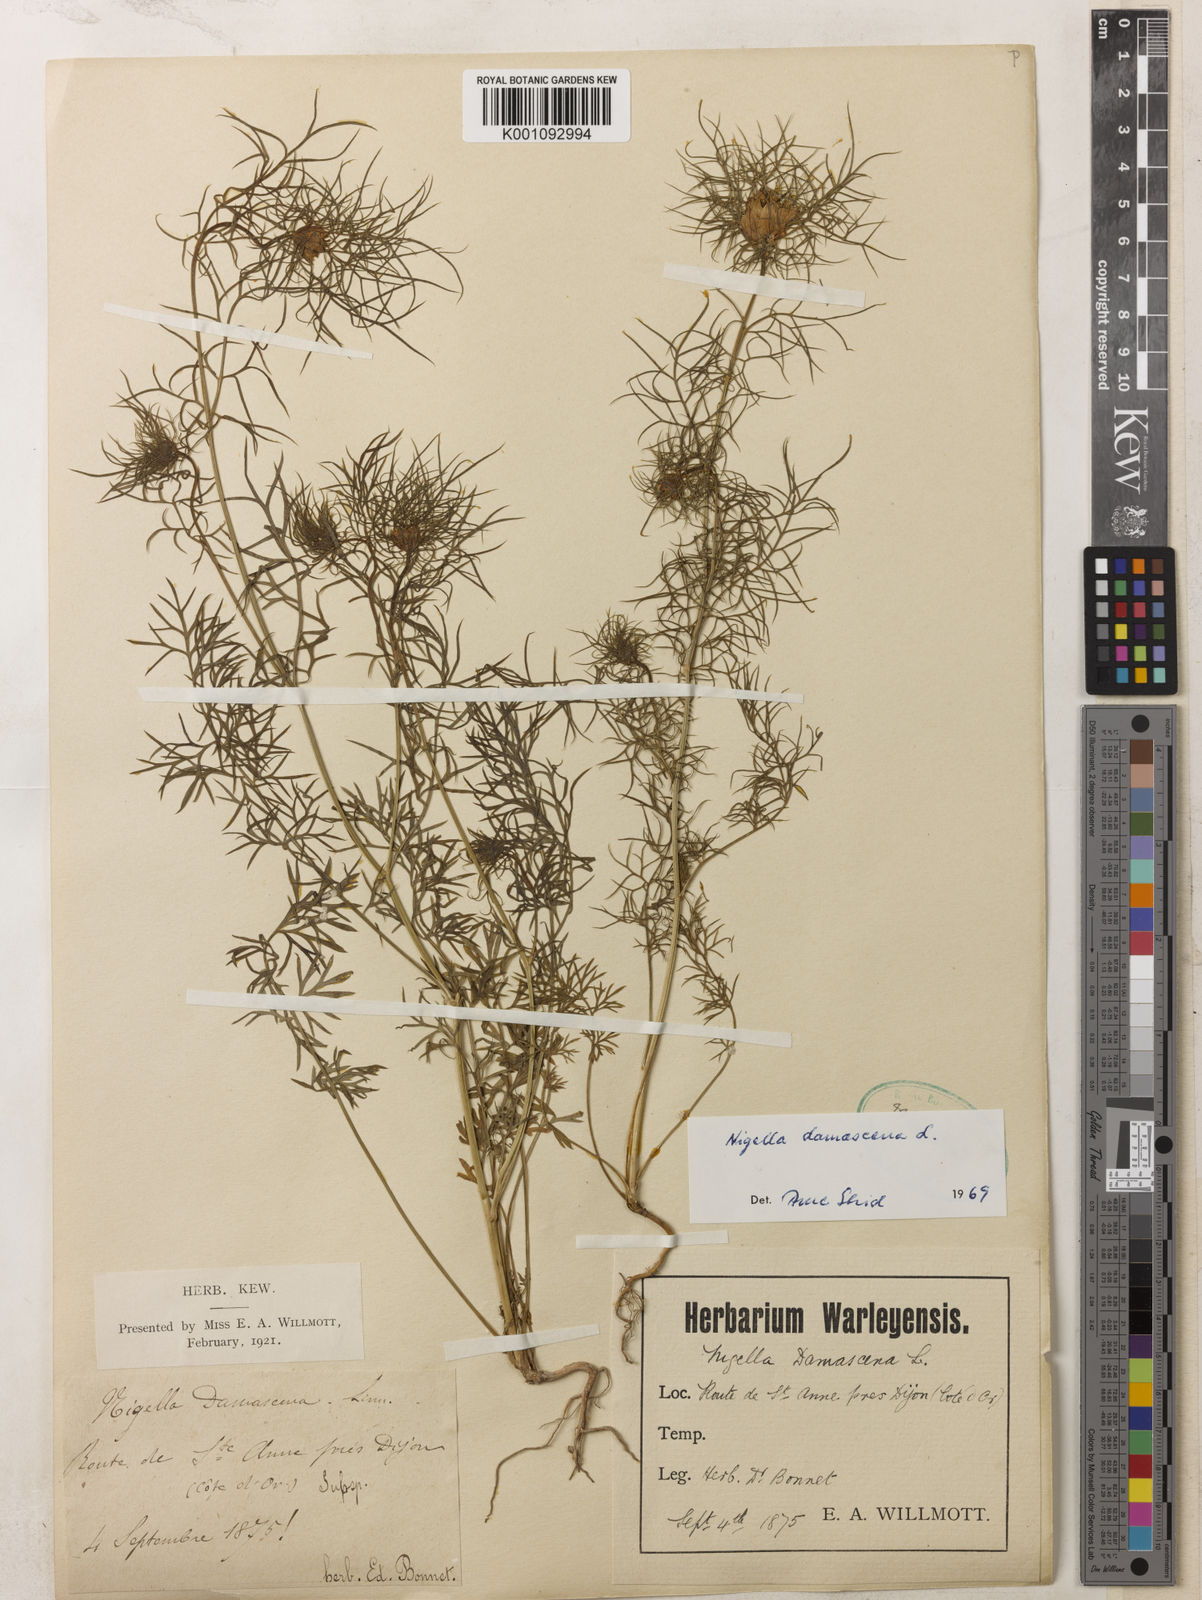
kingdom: Plantae
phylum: Tracheophyta
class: Magnoliopsida
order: Ranunculales
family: Ranunculaceae
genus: Nigella
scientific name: Nigella damascena
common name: Love-in-a-mist
